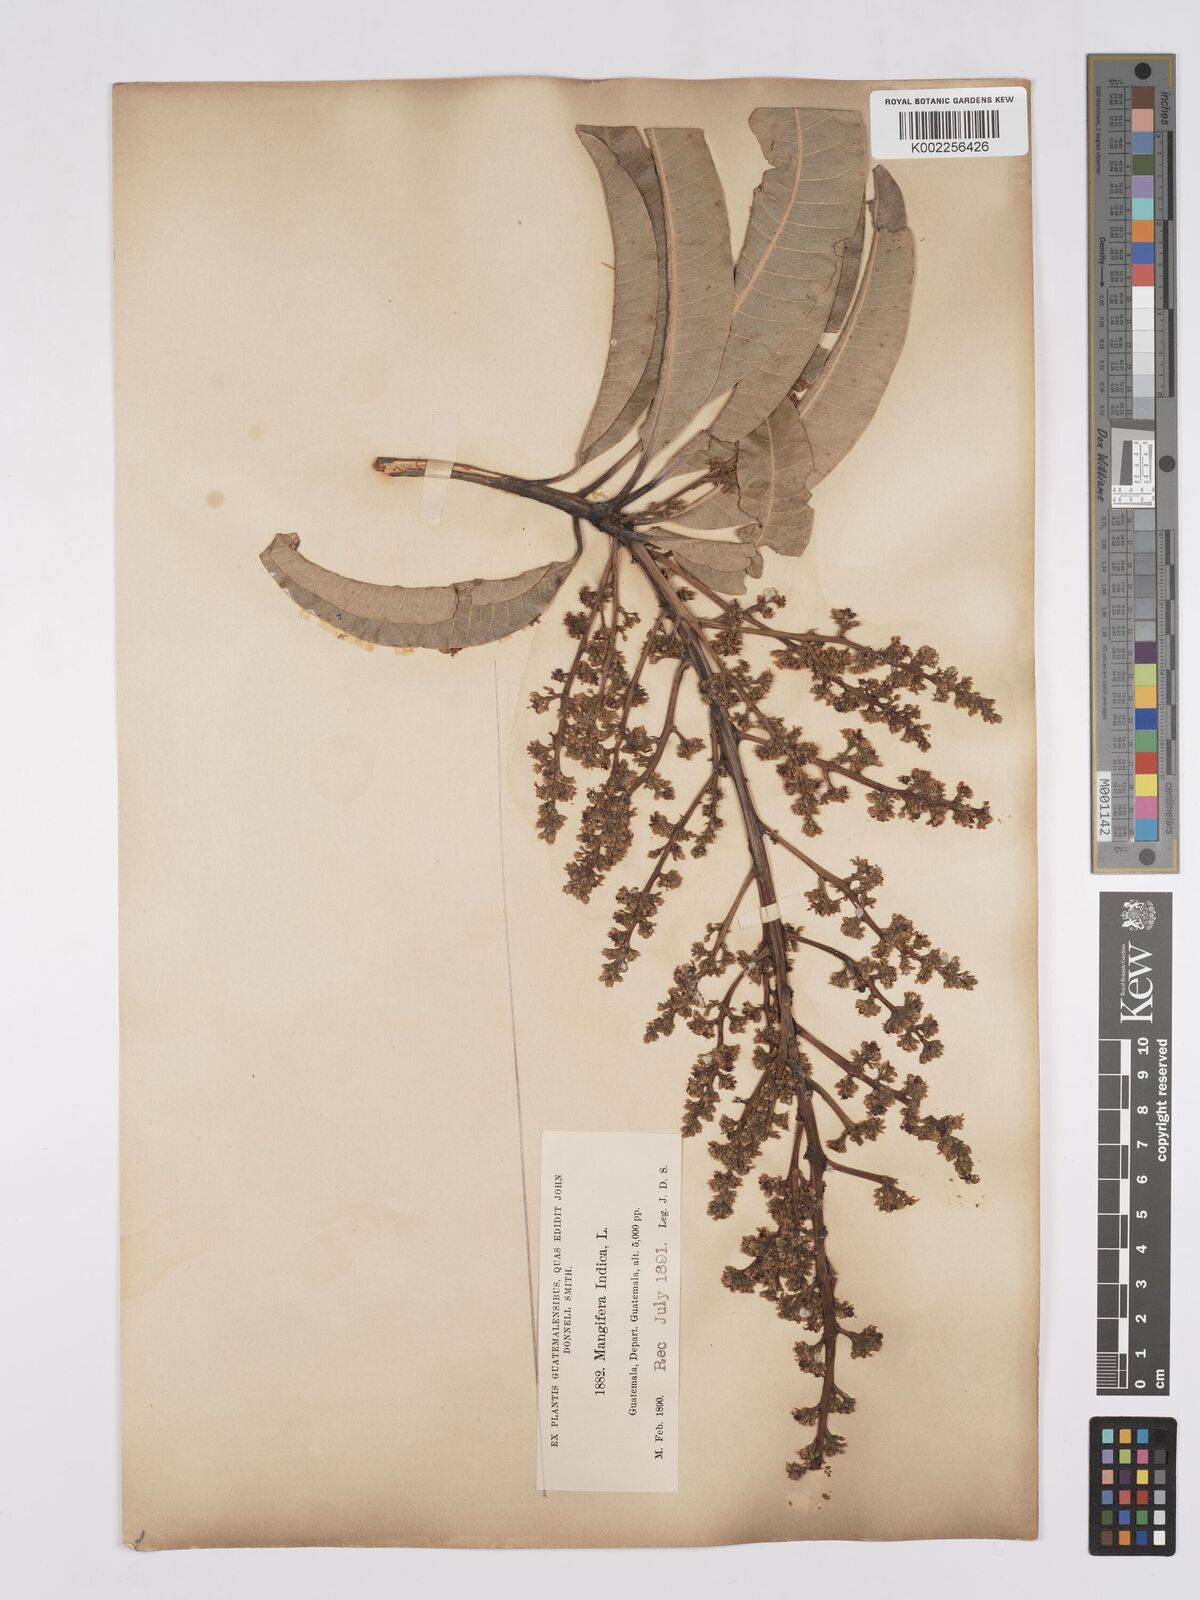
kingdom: Plantae
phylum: Tracheophyta
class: Magnoliopsida
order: Sapindales
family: Anacardiaceae
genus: Mangifera
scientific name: Mangifera indica
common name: Mango
